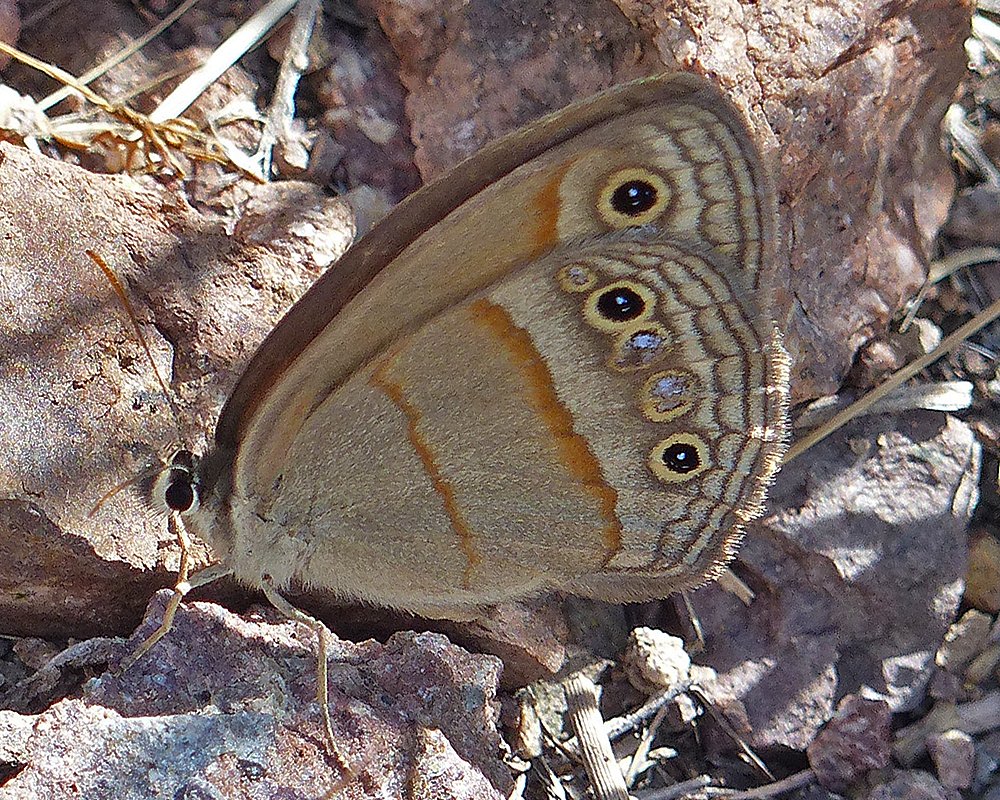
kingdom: Animalia
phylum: Arthropoda
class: Insecta
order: Lepidoptera
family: Nymphalidae
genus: Euptychia
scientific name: Euptychia rubricata
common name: Red Satyr
